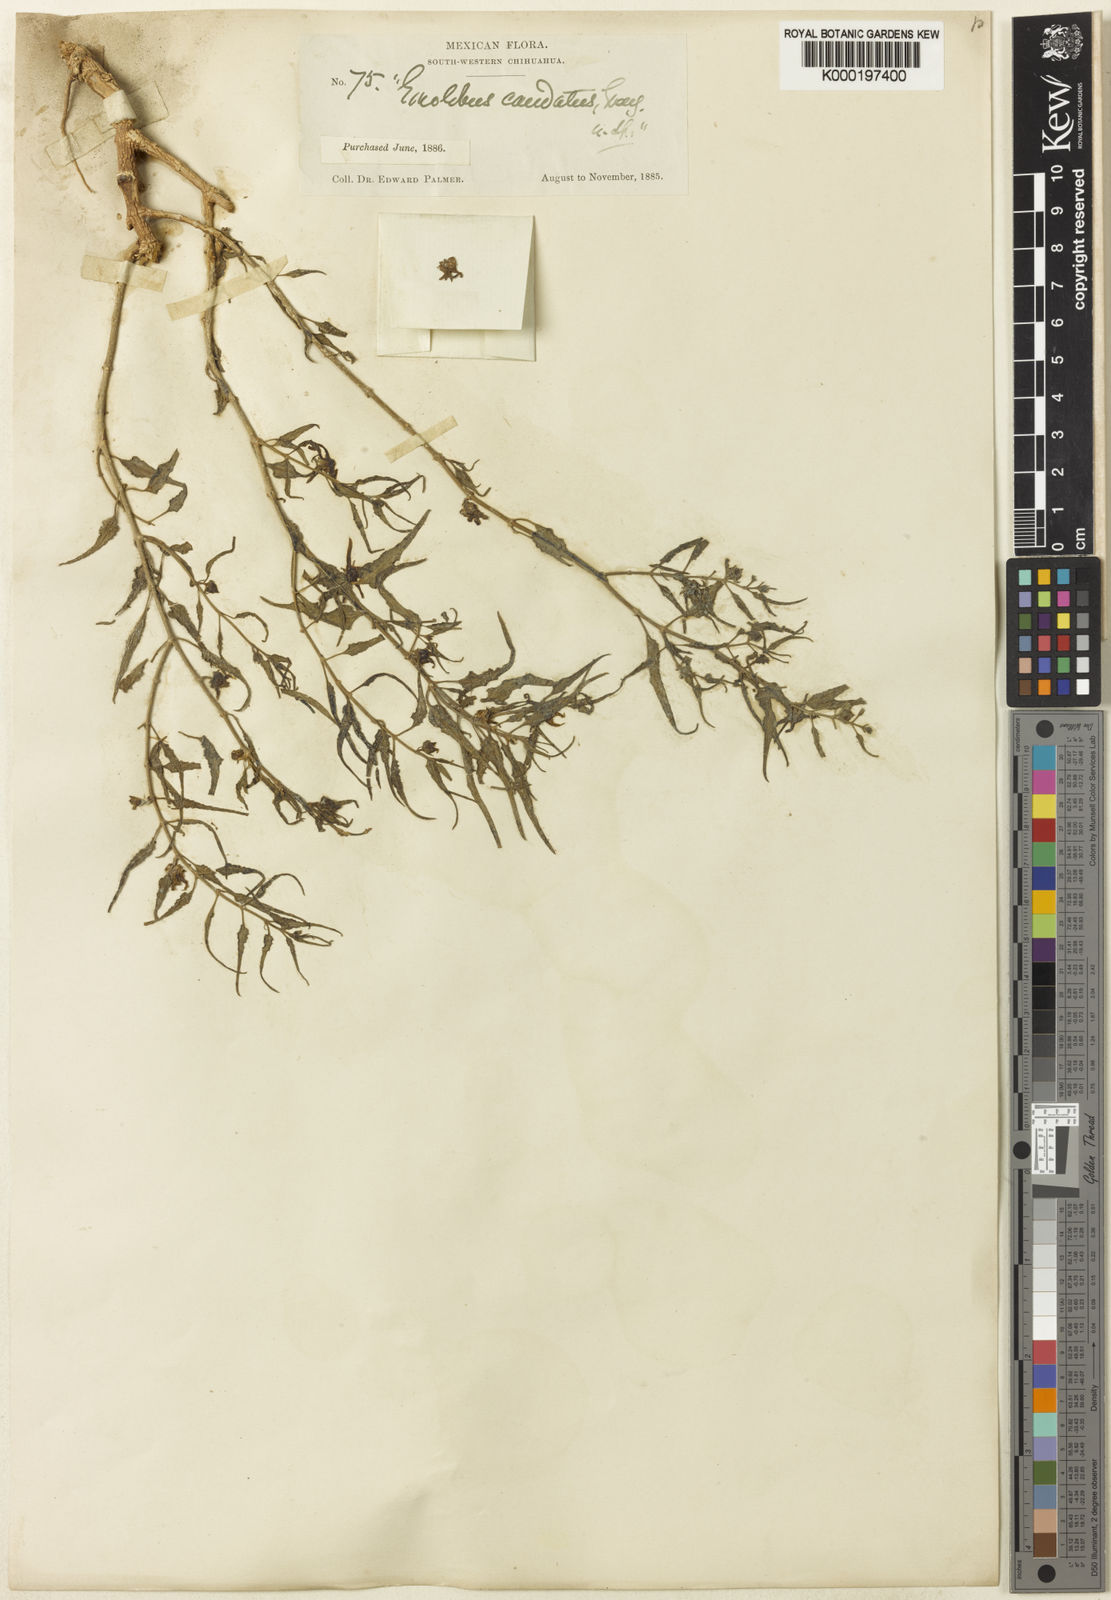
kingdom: Plantae
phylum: Tracheophyta
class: Magnoliopsida
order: Gentianales
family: Apocynaceae
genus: Talayotea
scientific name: Talayotea caudata
